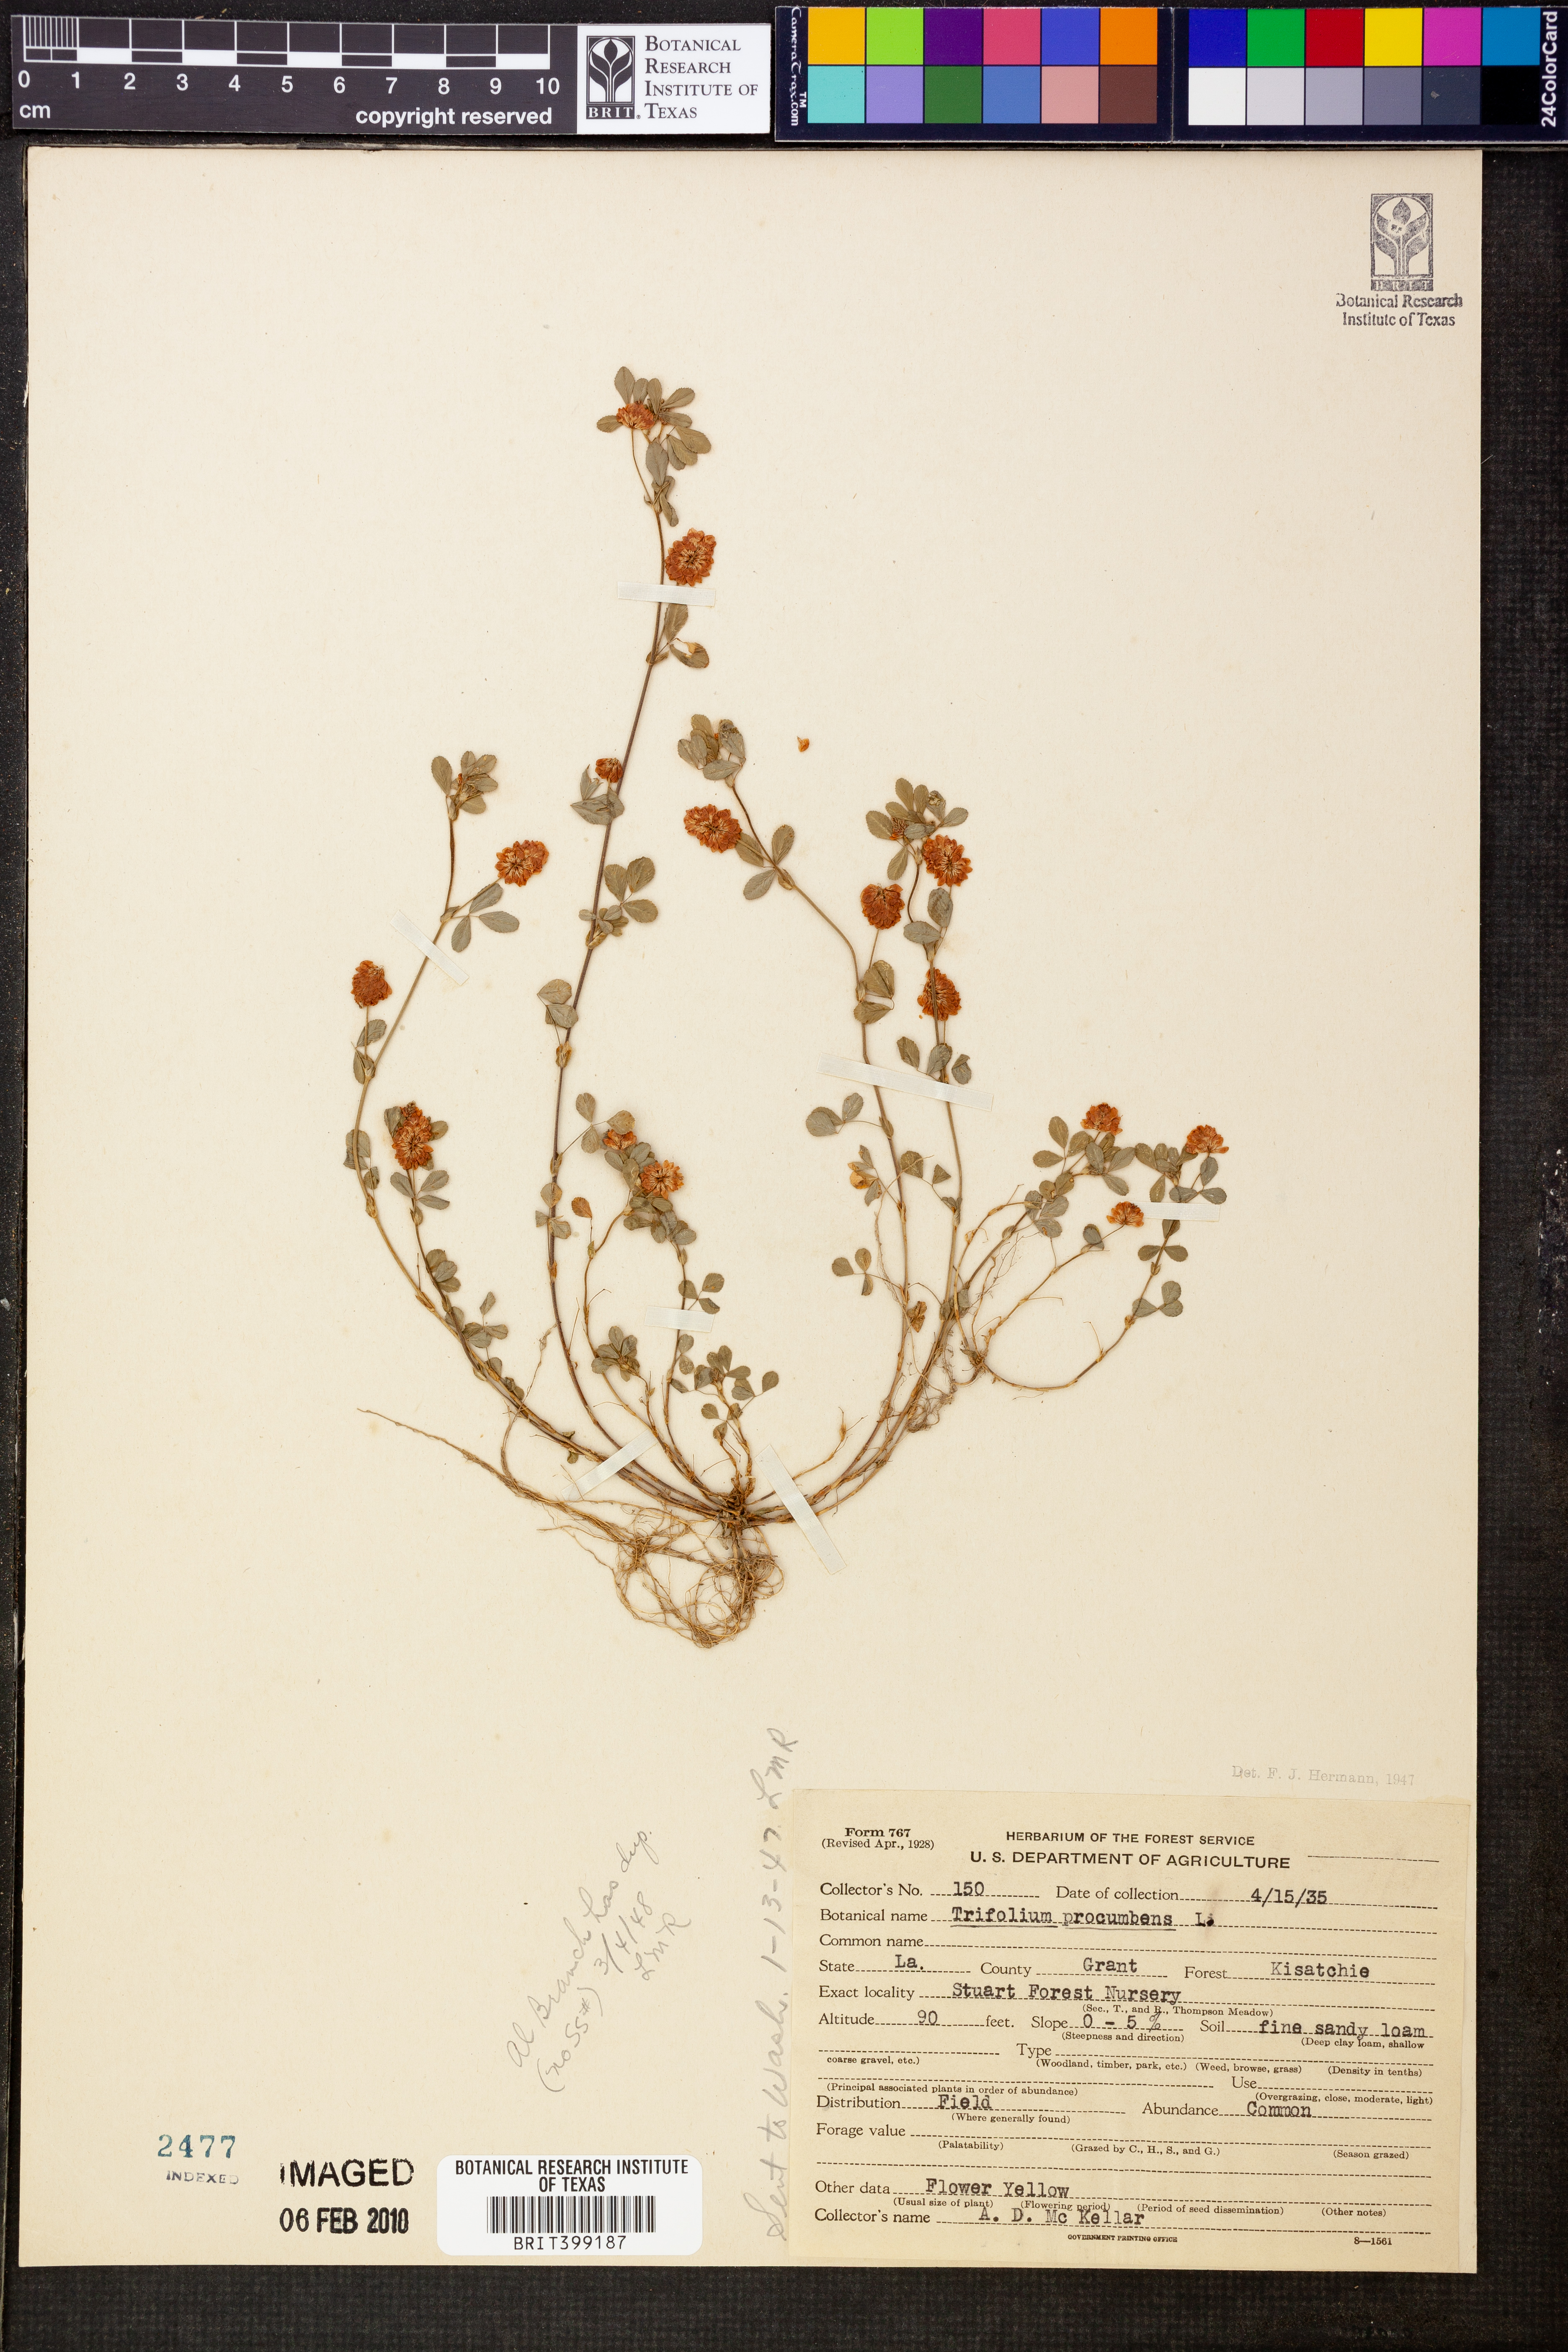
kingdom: Plantae
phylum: Tracheophyta
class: Magnoliopsida
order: Fabales
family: Fabaceae
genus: Trifolium
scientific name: Trifolium campestre
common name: Field clover
